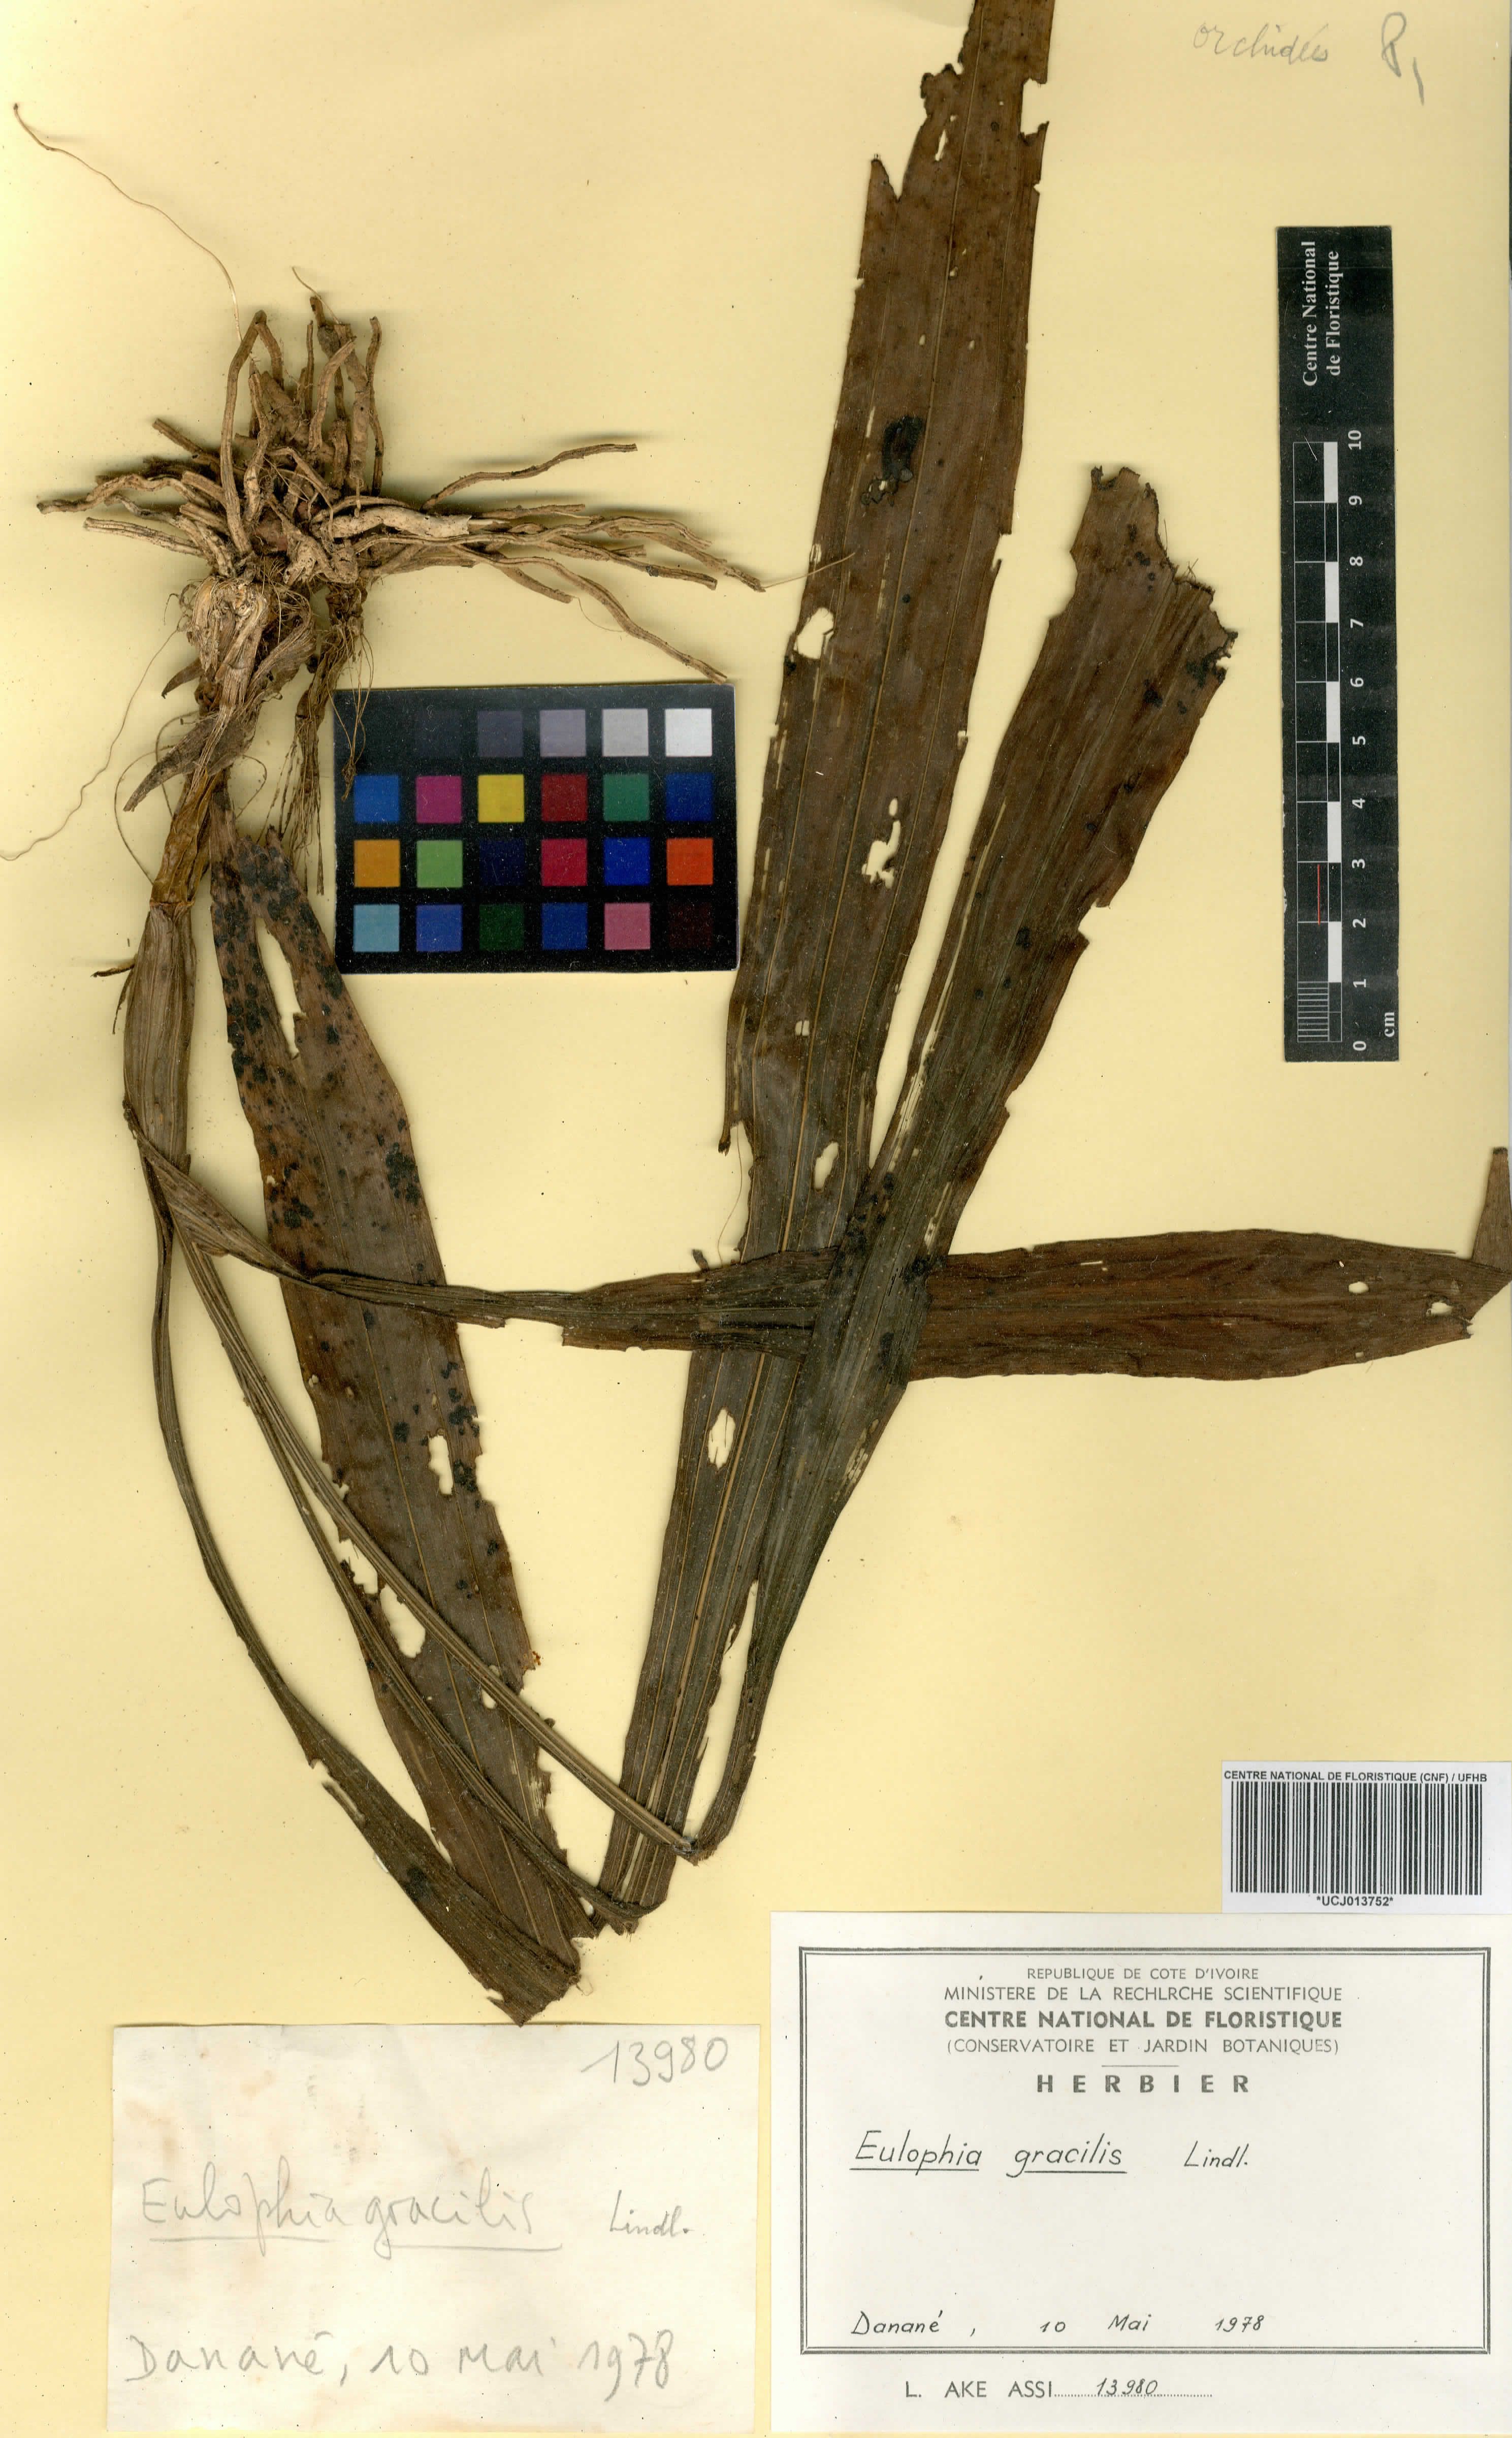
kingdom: Plantae
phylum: Tracheophyta
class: Liliopsida
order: Asparagales
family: Orchidaceae
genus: Eulophia
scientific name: Eulophia gracilis
